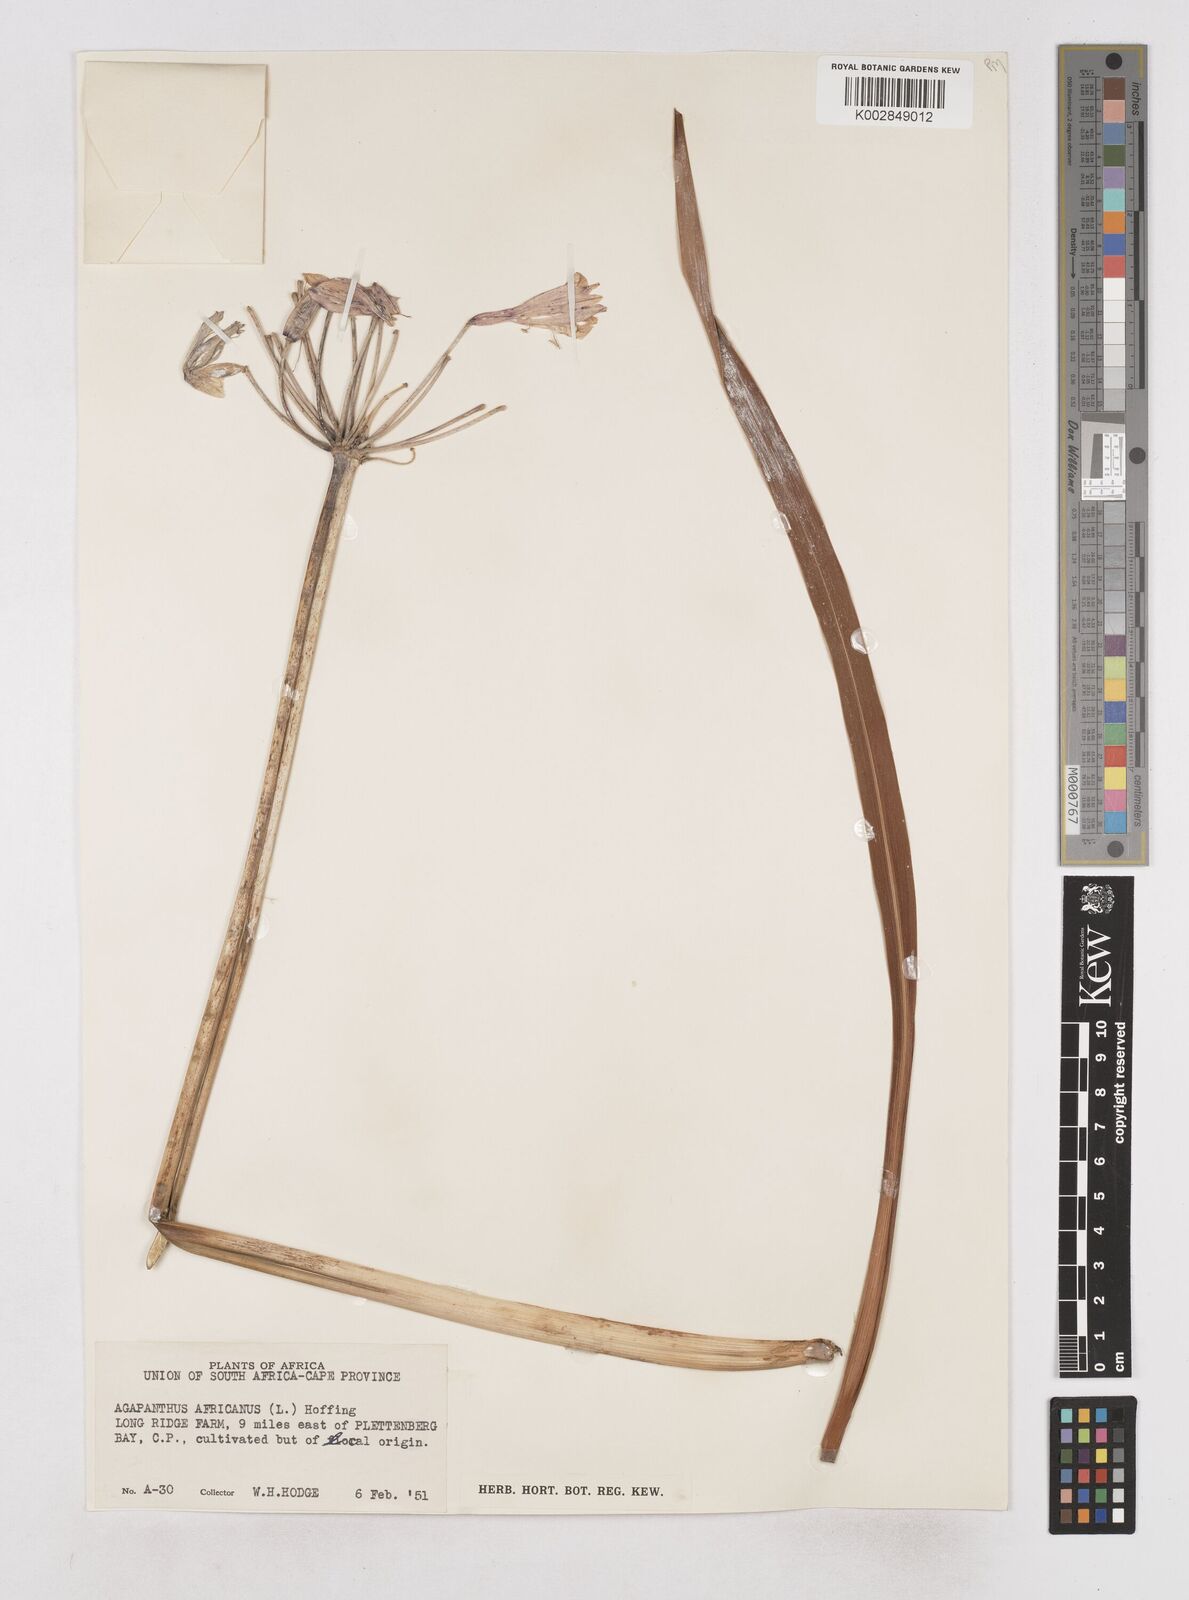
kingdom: Plantae
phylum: Tracheophyta
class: Liliopsida
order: Asparagales
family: Amaryllidaceae
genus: Agapanthus
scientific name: Agapanthus africanus
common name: Lily-of-the-nile
